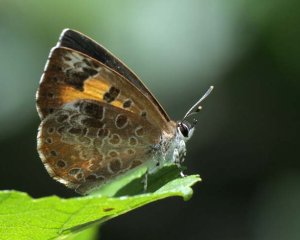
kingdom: Animalia
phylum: Arthropoda
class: Insecta
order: Lepidoptera
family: Lycaenidae
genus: Feniseca
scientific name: Feniseca tarquinius
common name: Harvester
